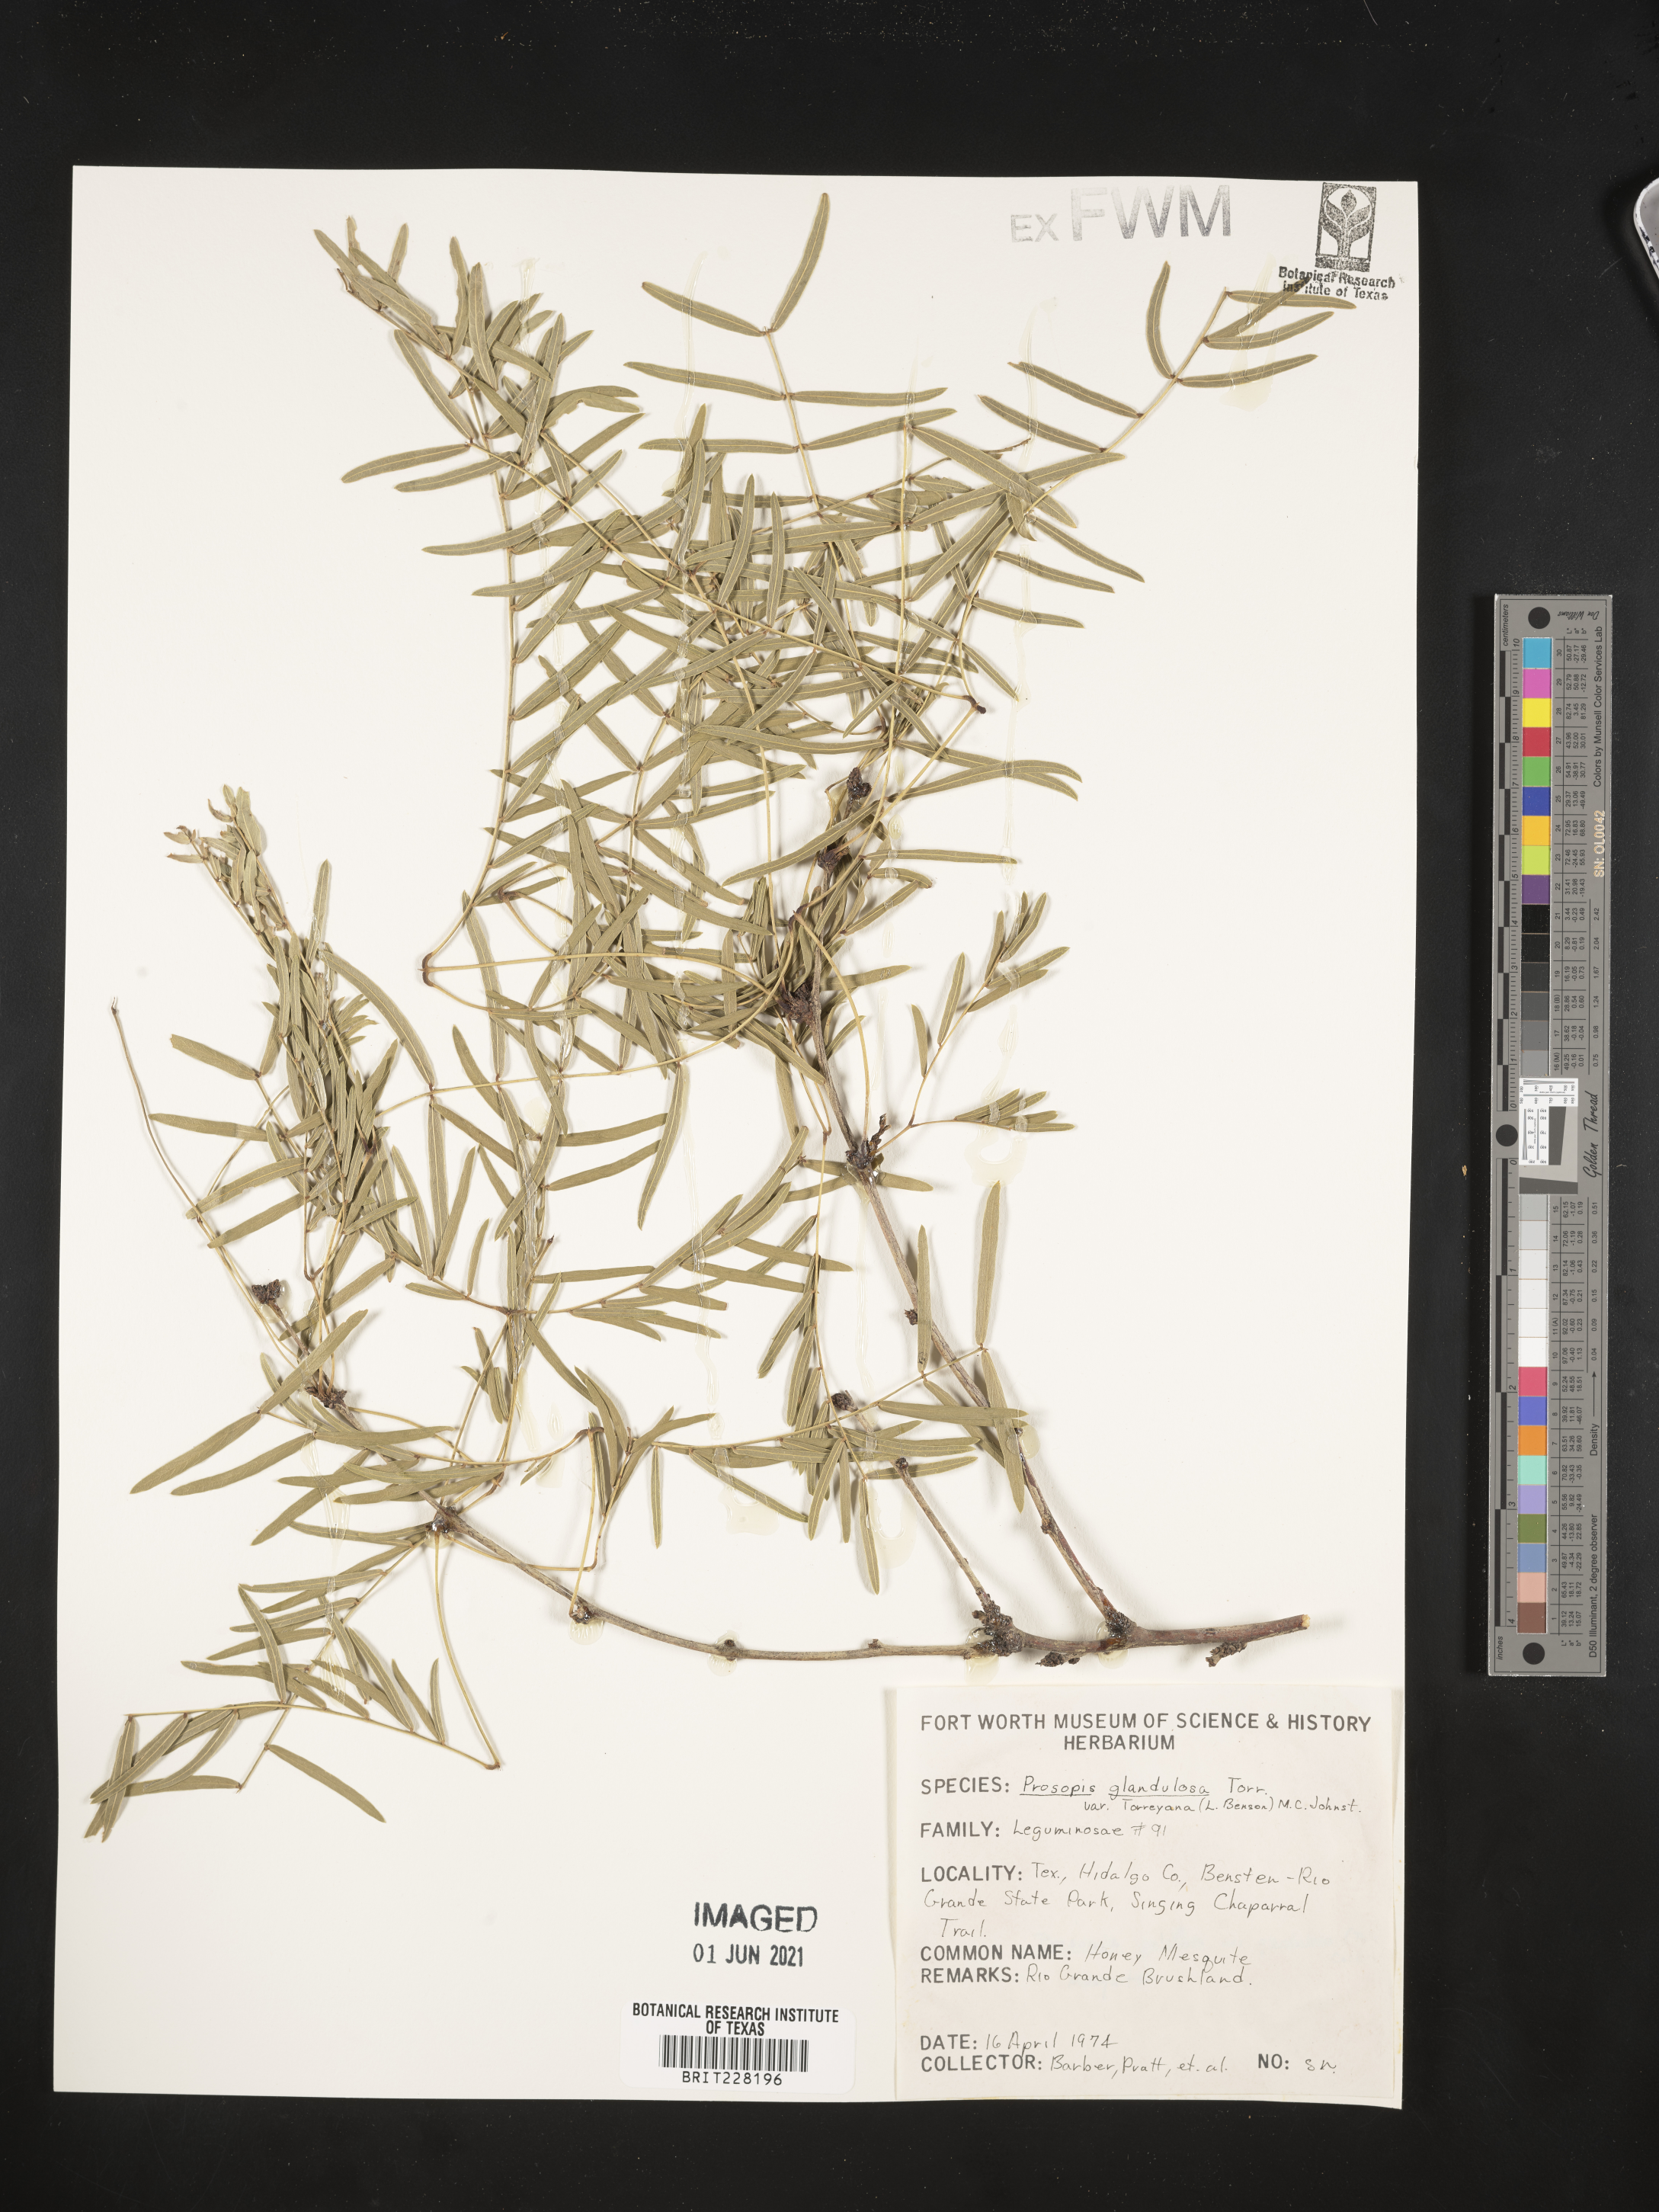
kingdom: Plantae
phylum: Tracheophyta
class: Magnoliopsida
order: Fabales
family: Fabaceae
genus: Prosopis
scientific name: Prosopis glandulosa
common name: Honey mesquite
